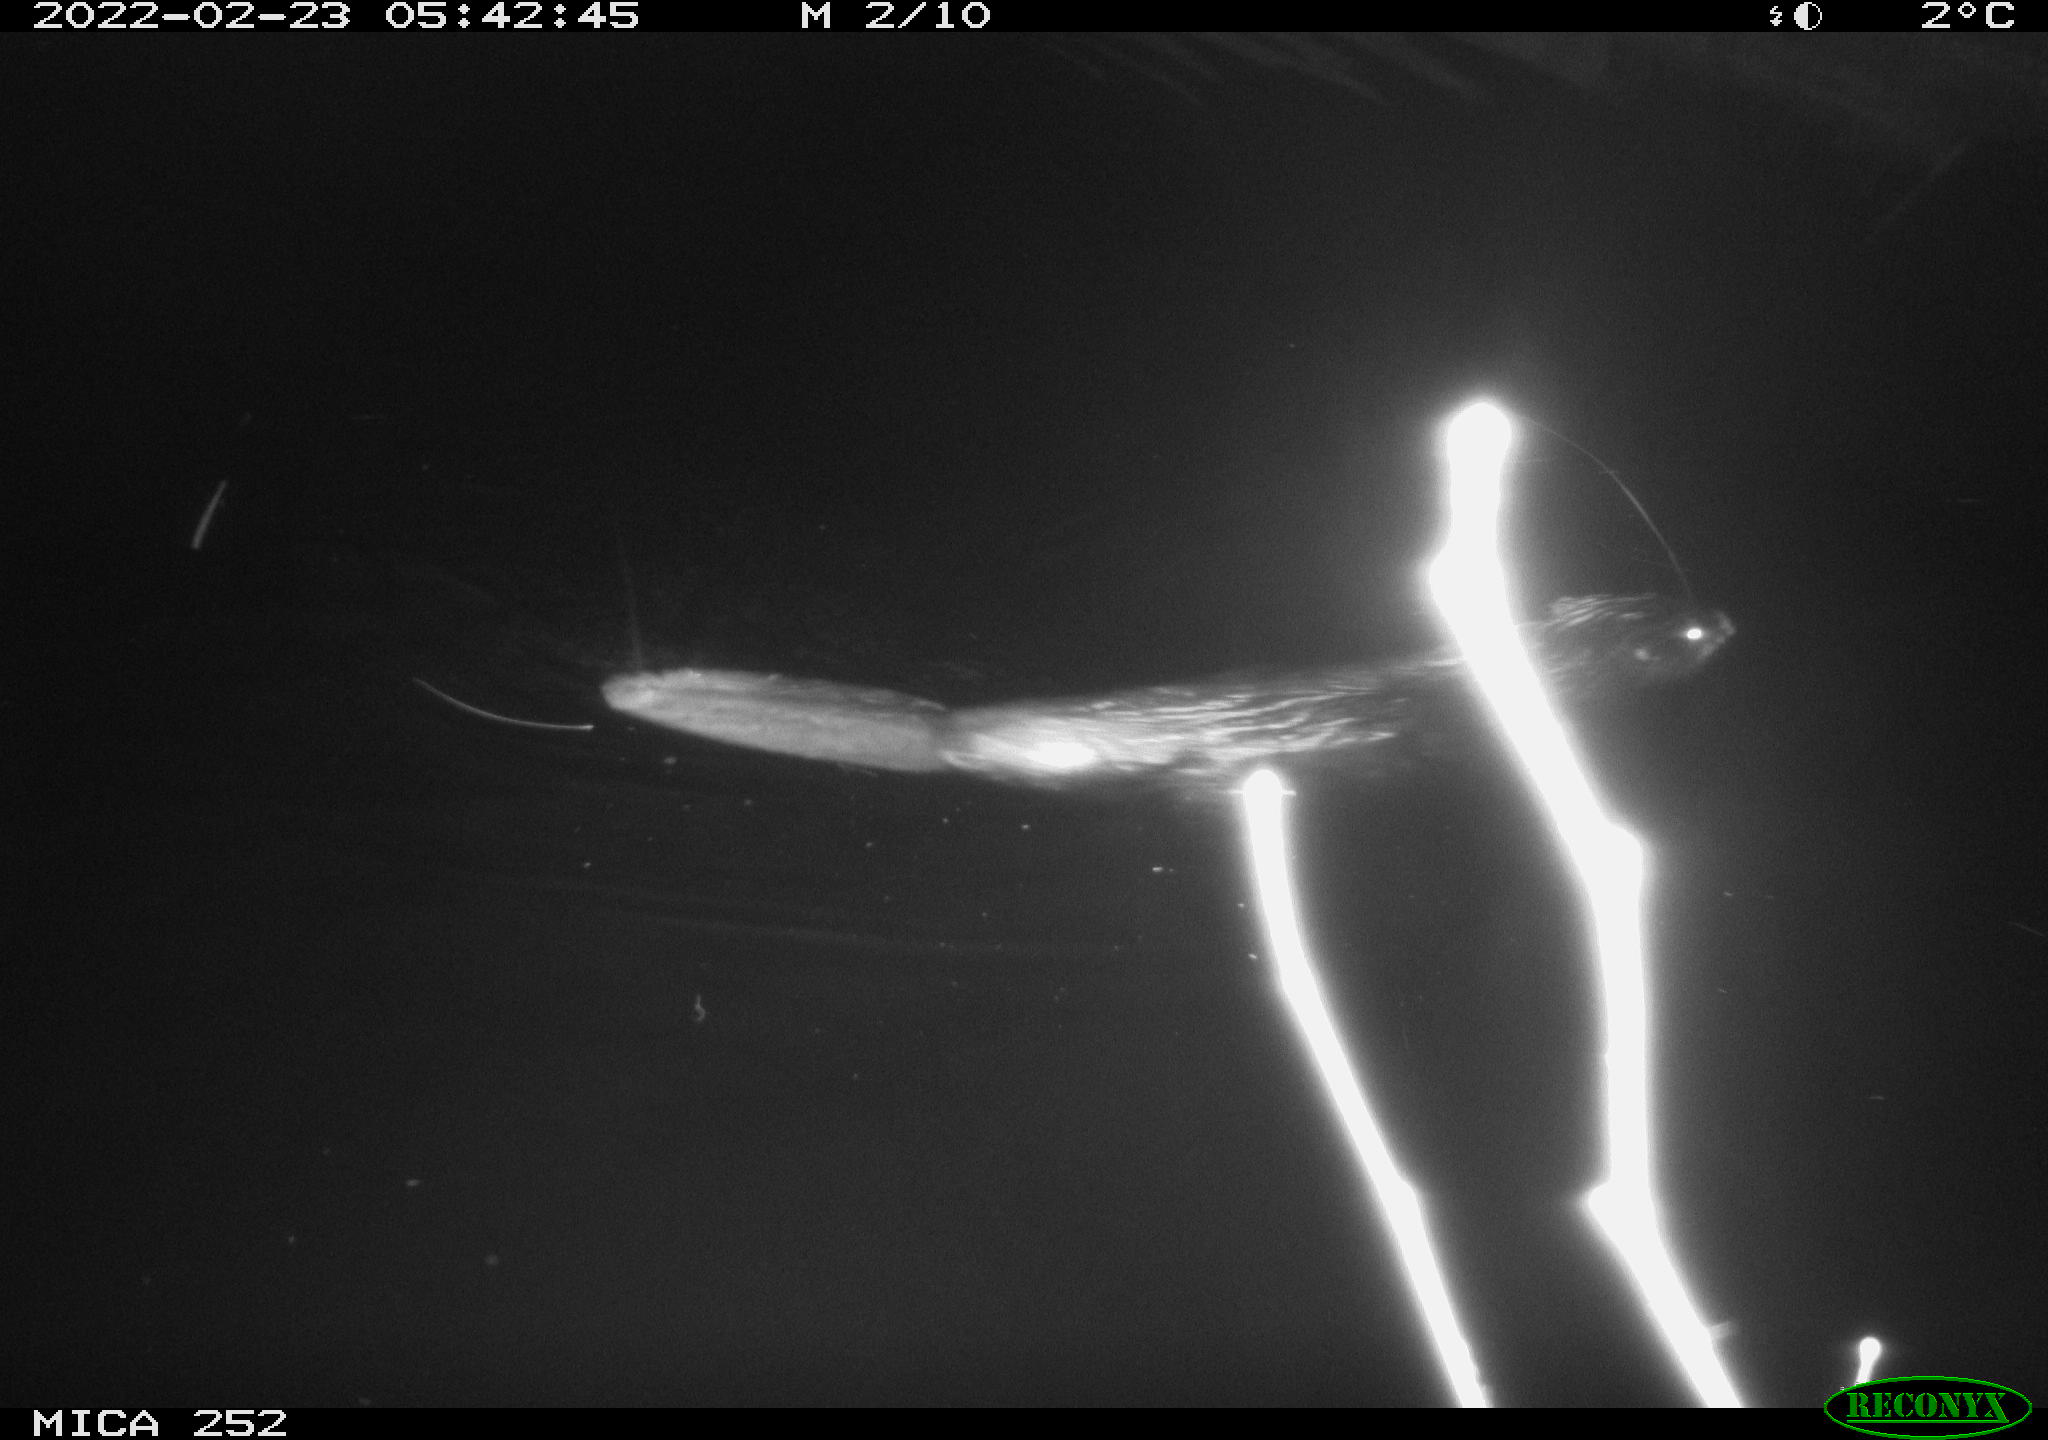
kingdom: Animalia
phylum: Chordata
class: Mammalia
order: Rodentia
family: Castoridae
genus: Castor
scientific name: Castor fiber
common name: Eurasian beaver
